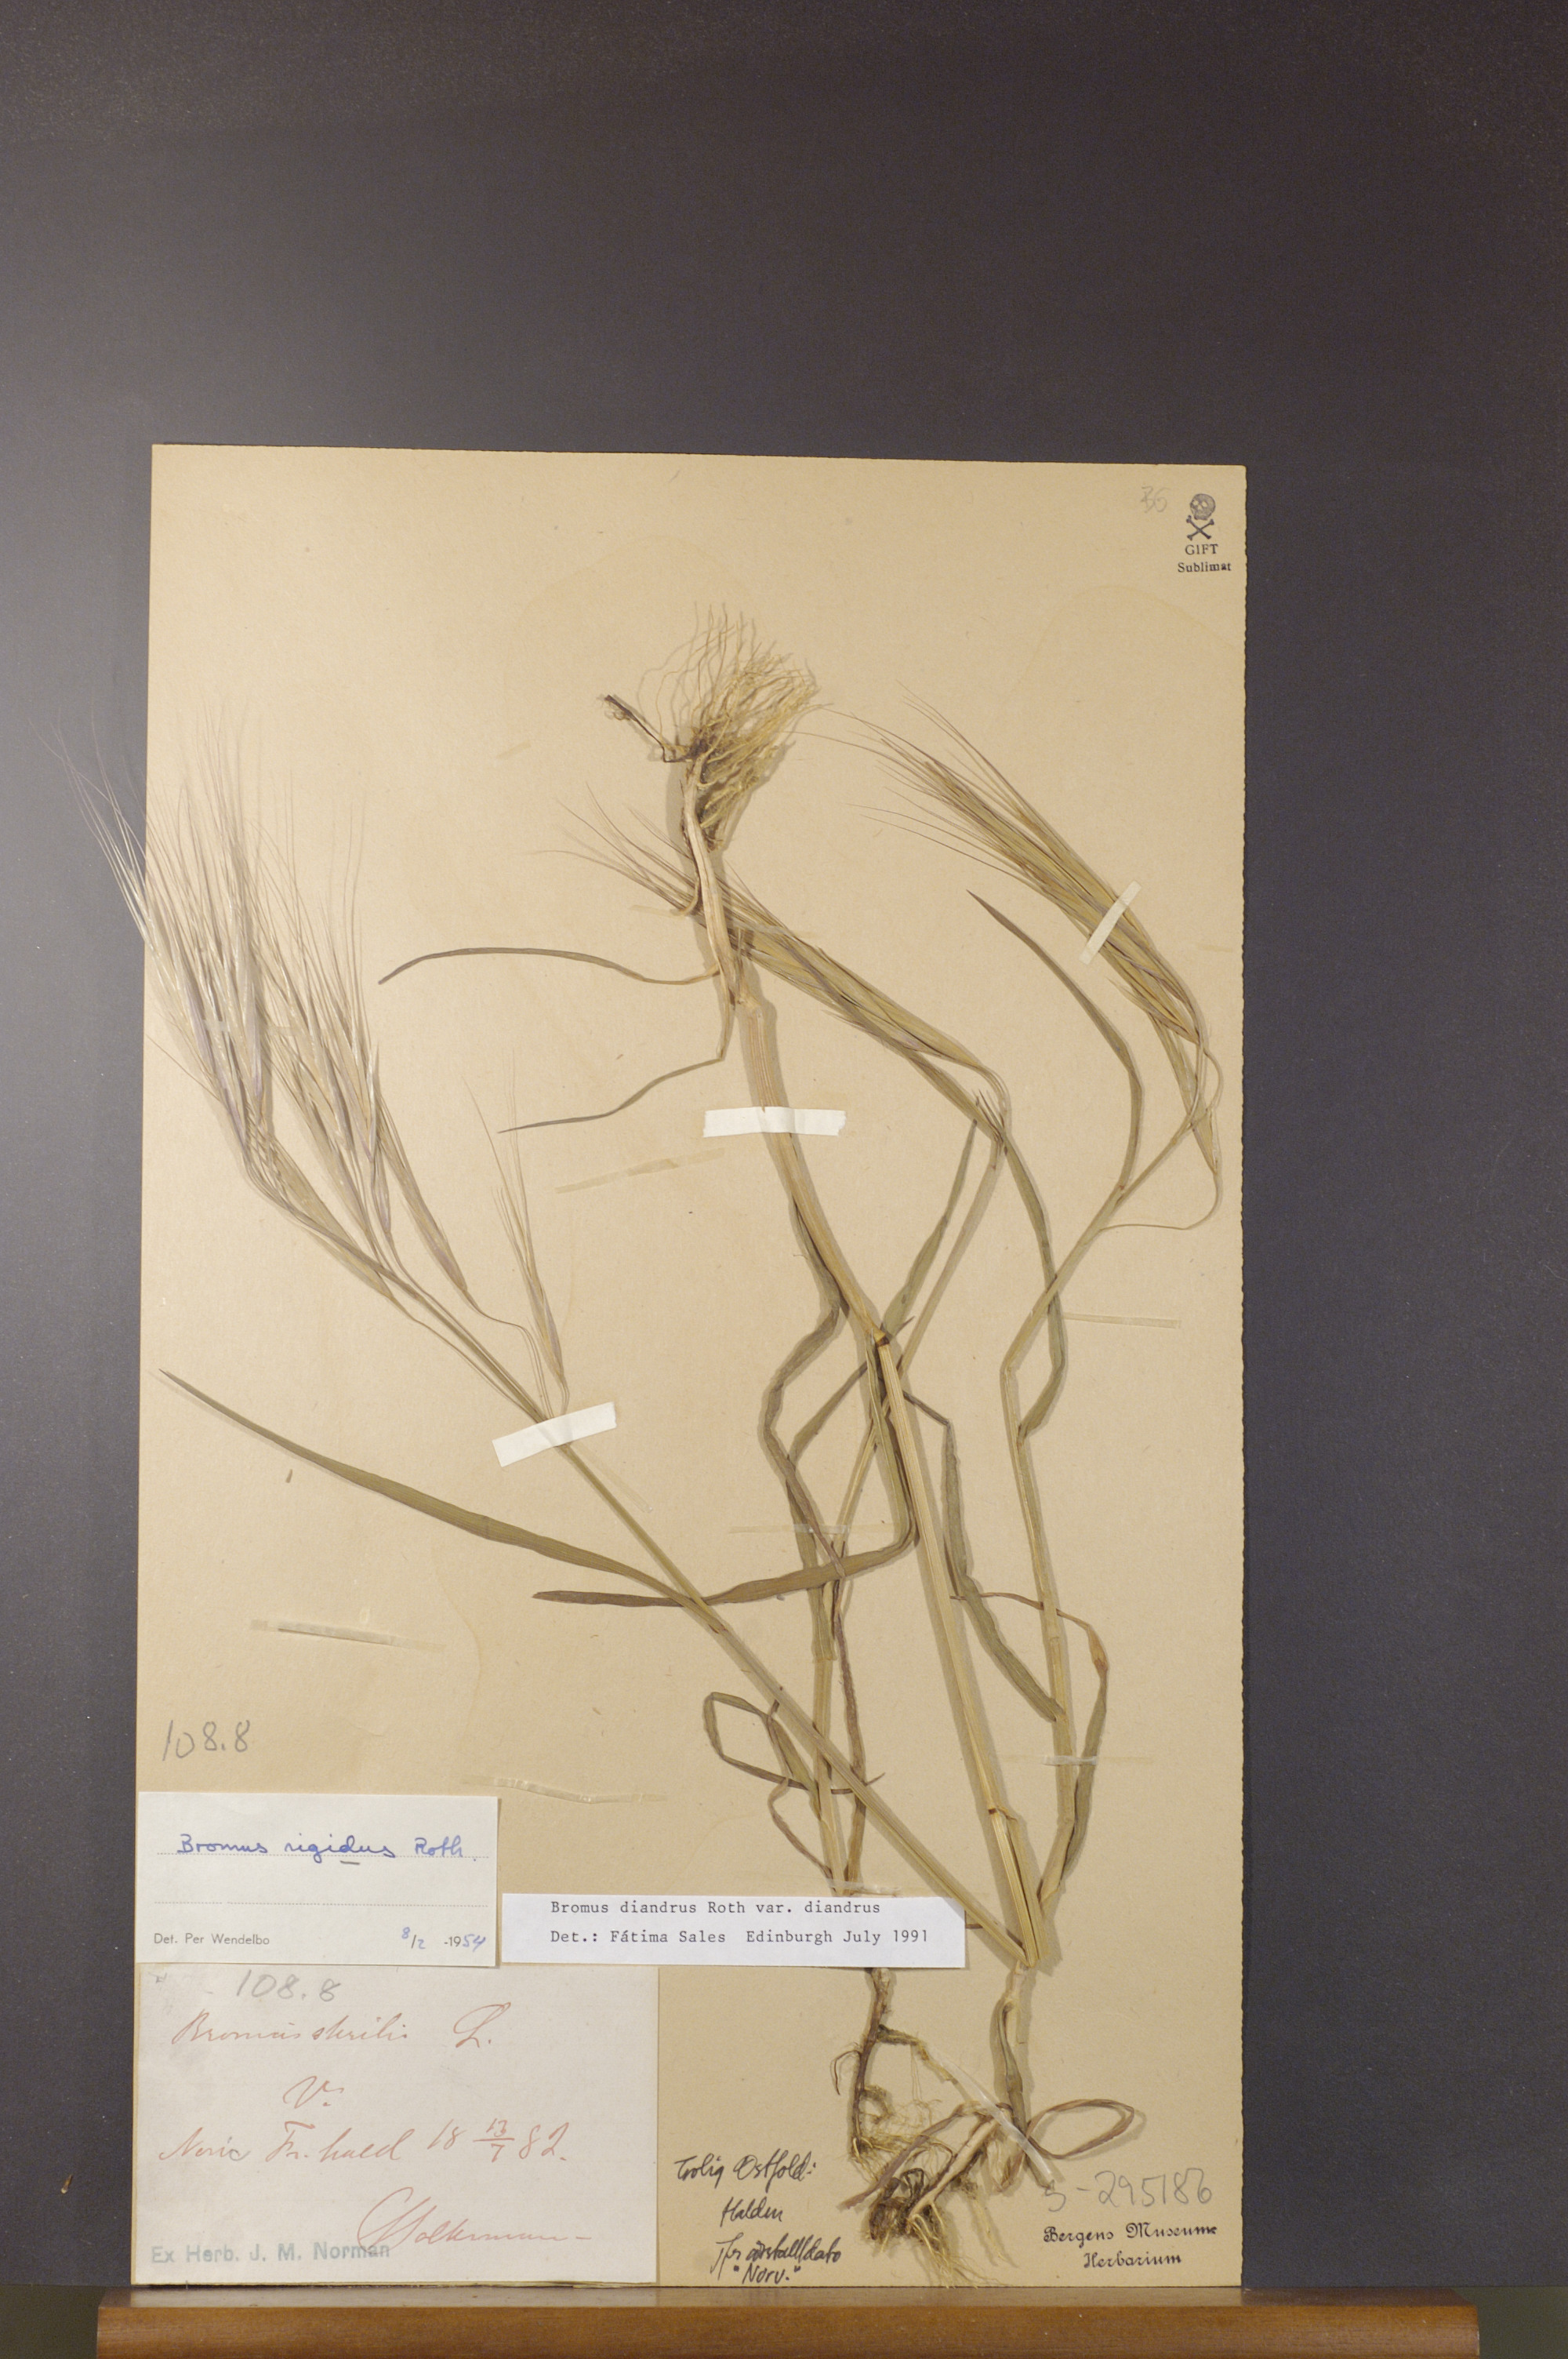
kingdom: Plantae
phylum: Tracheophyta
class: Liliopsida
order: Poales
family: Poaceae
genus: Bromus
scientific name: Bromus diandrus
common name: Ripgut brome
